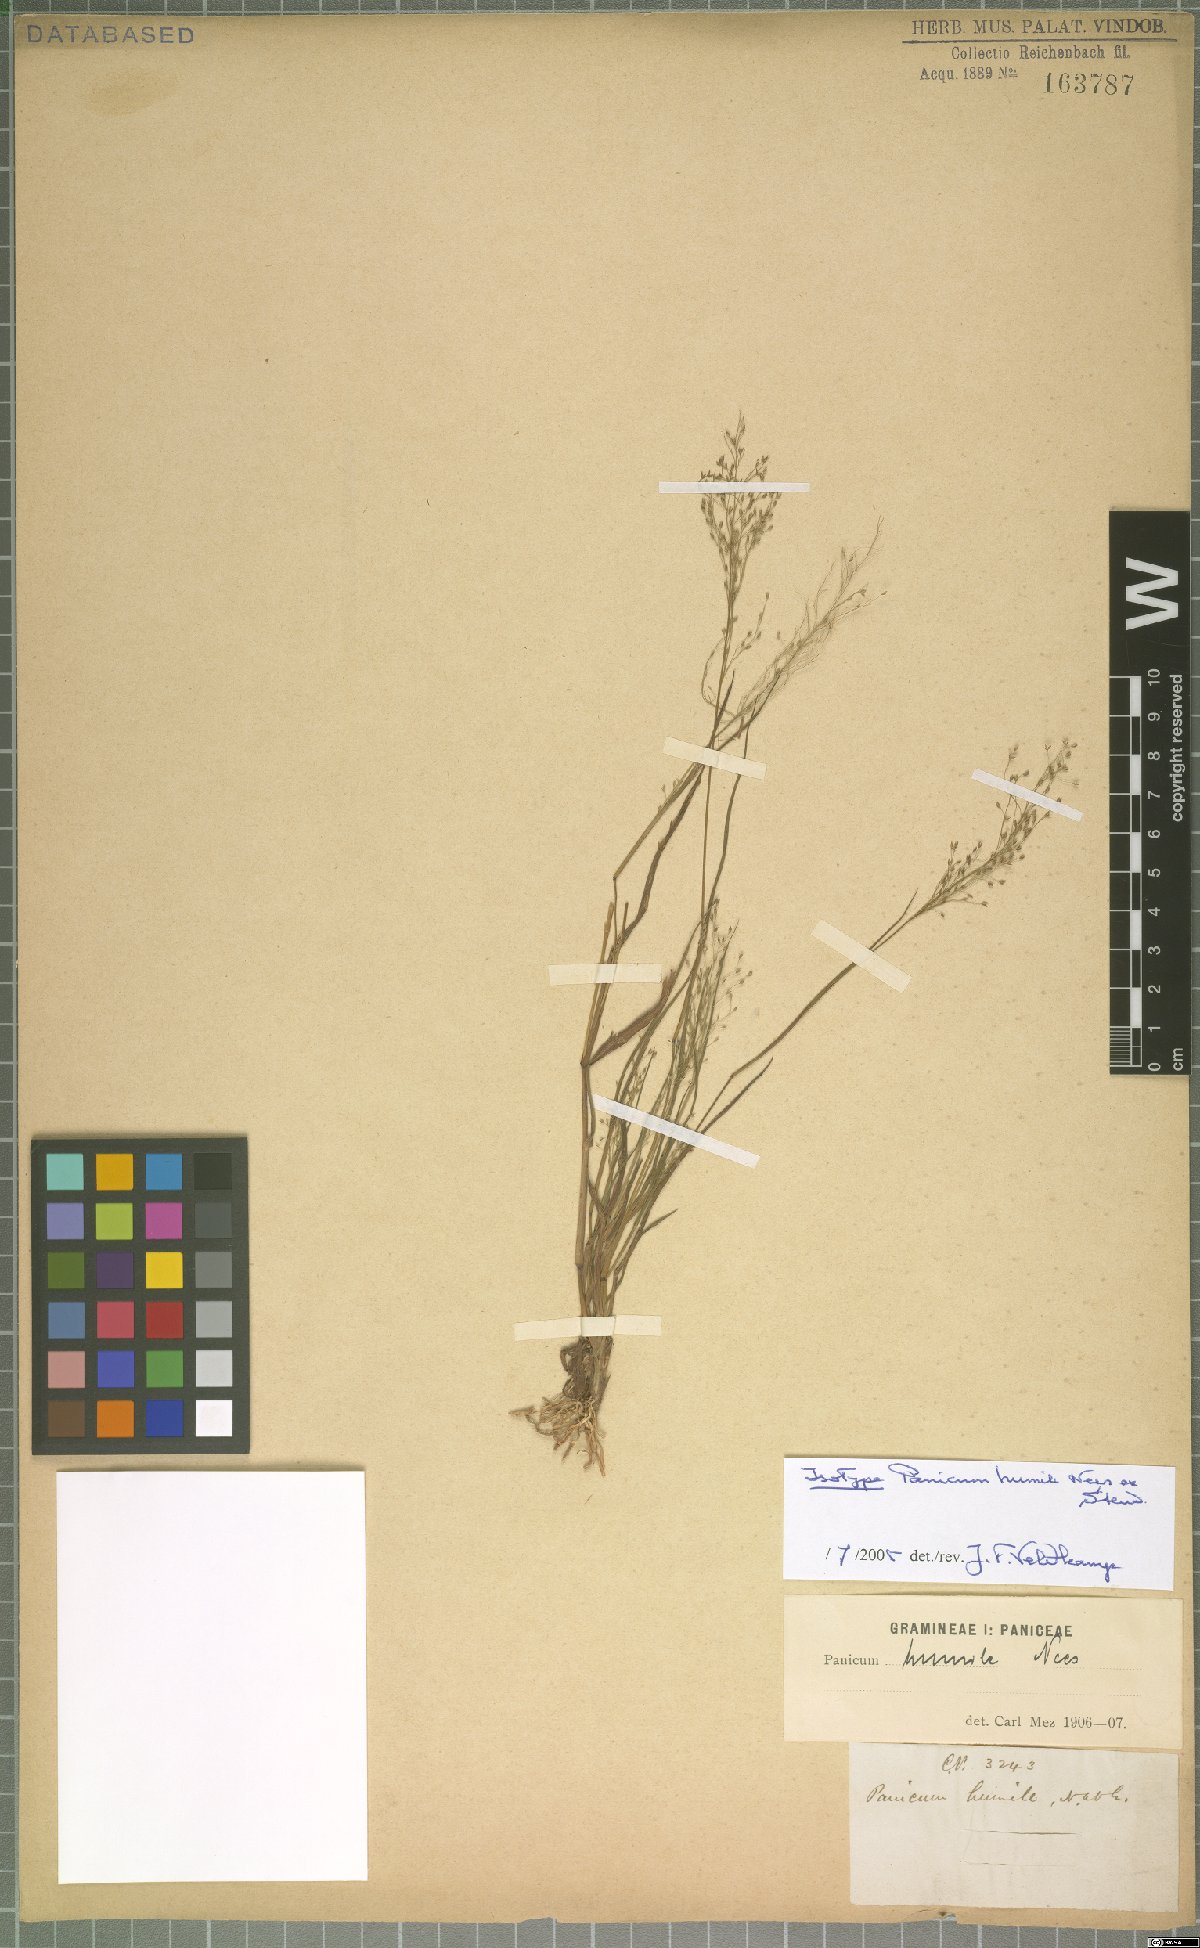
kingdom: Plantae
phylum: Tracheophyta
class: Liliopsida
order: Poales
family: Poaceae
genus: Panicum
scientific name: Panicum humile
